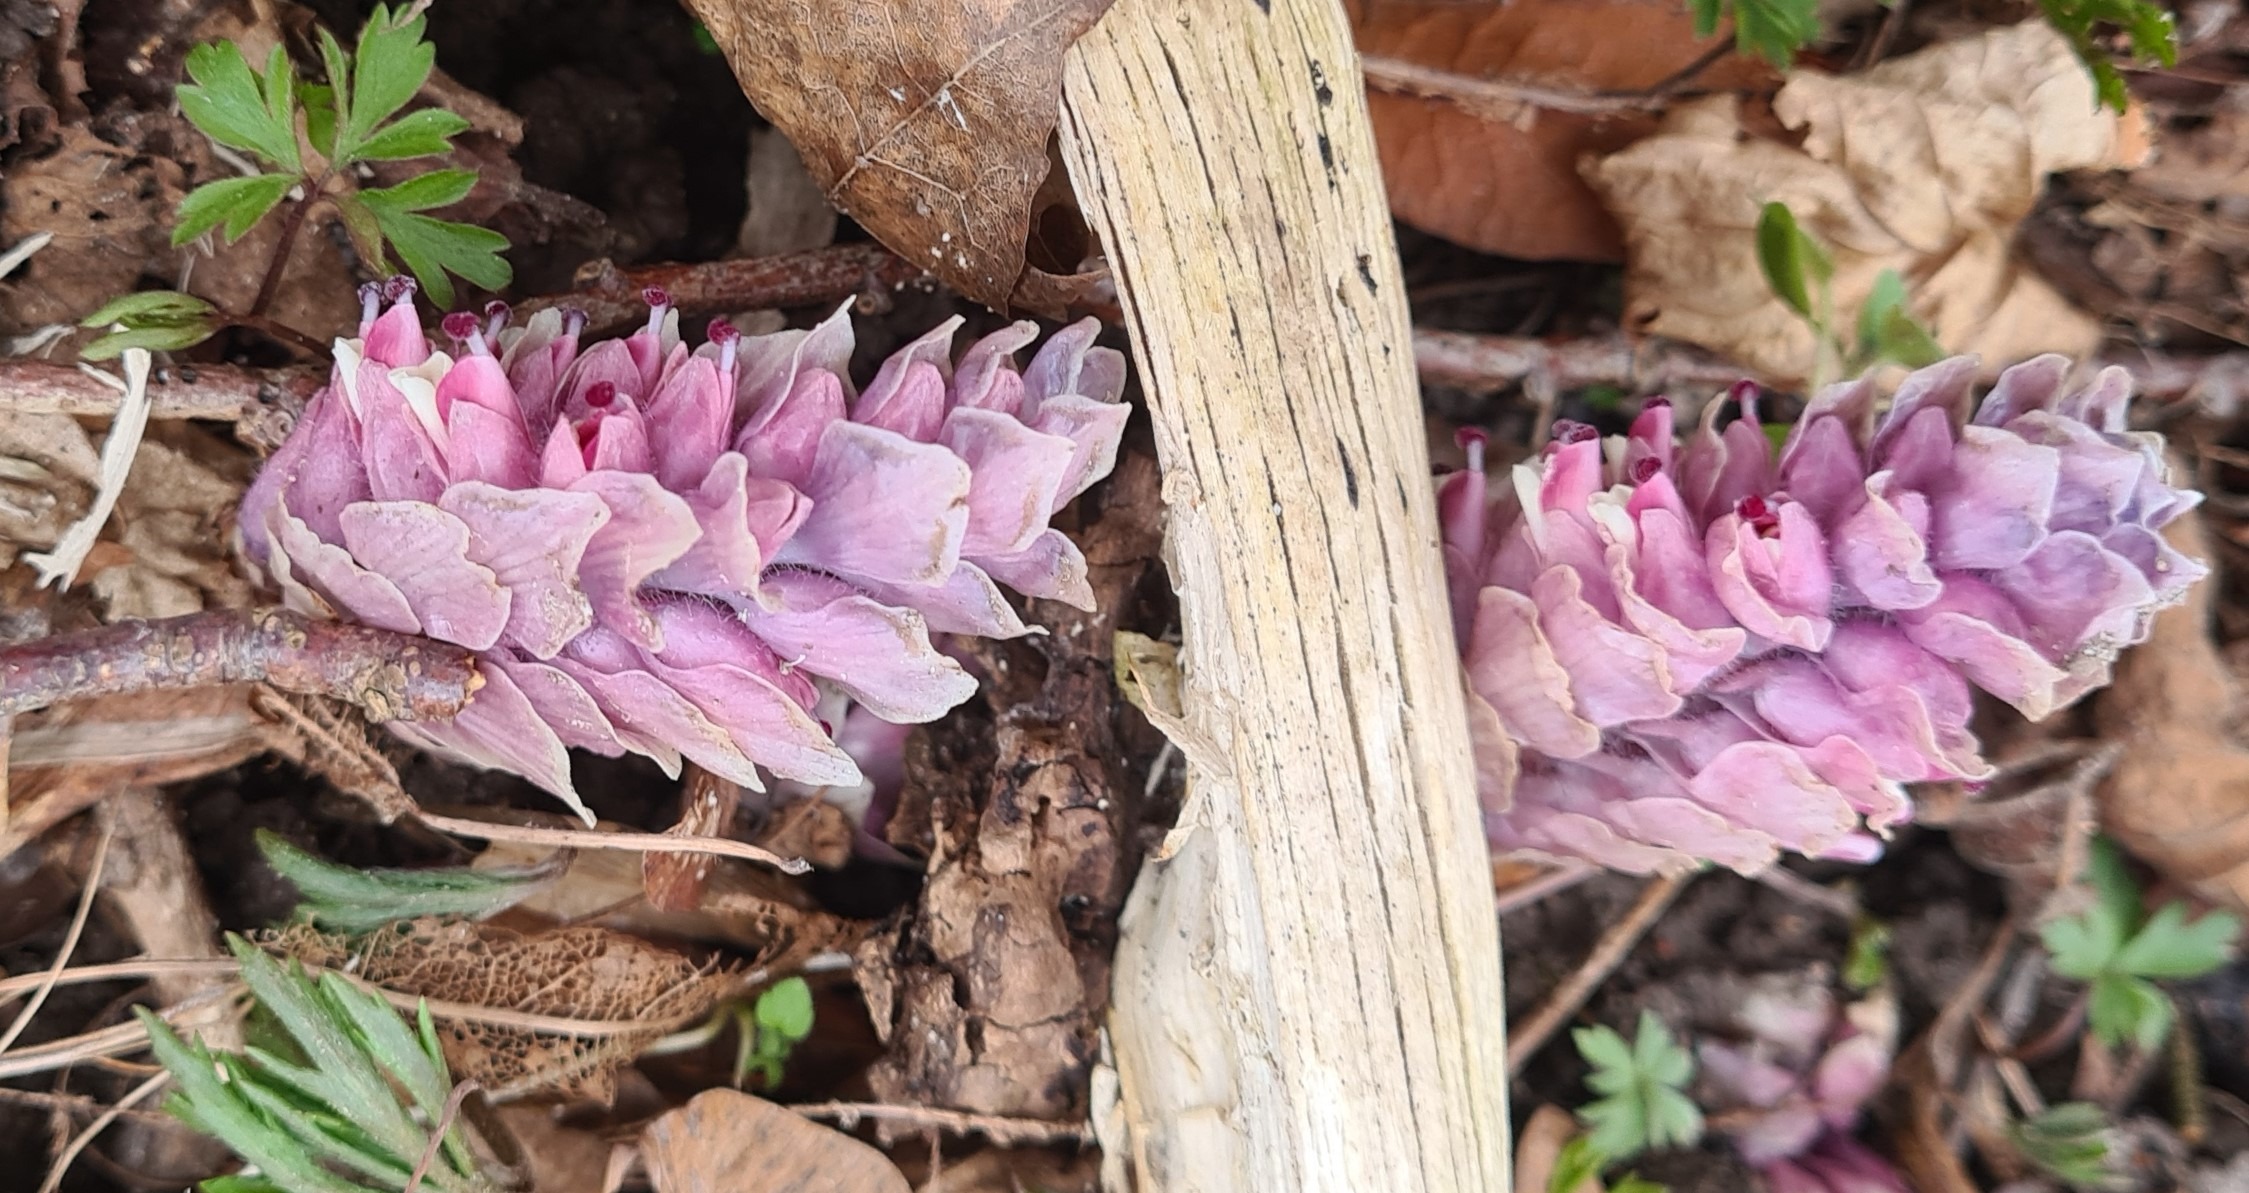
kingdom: Plantae
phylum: Tracheophyta
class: Magnoliopsida
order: Lamiales
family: Orobanchaceae
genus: Lathraea
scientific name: Lathraea squamaria
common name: Skælrod
